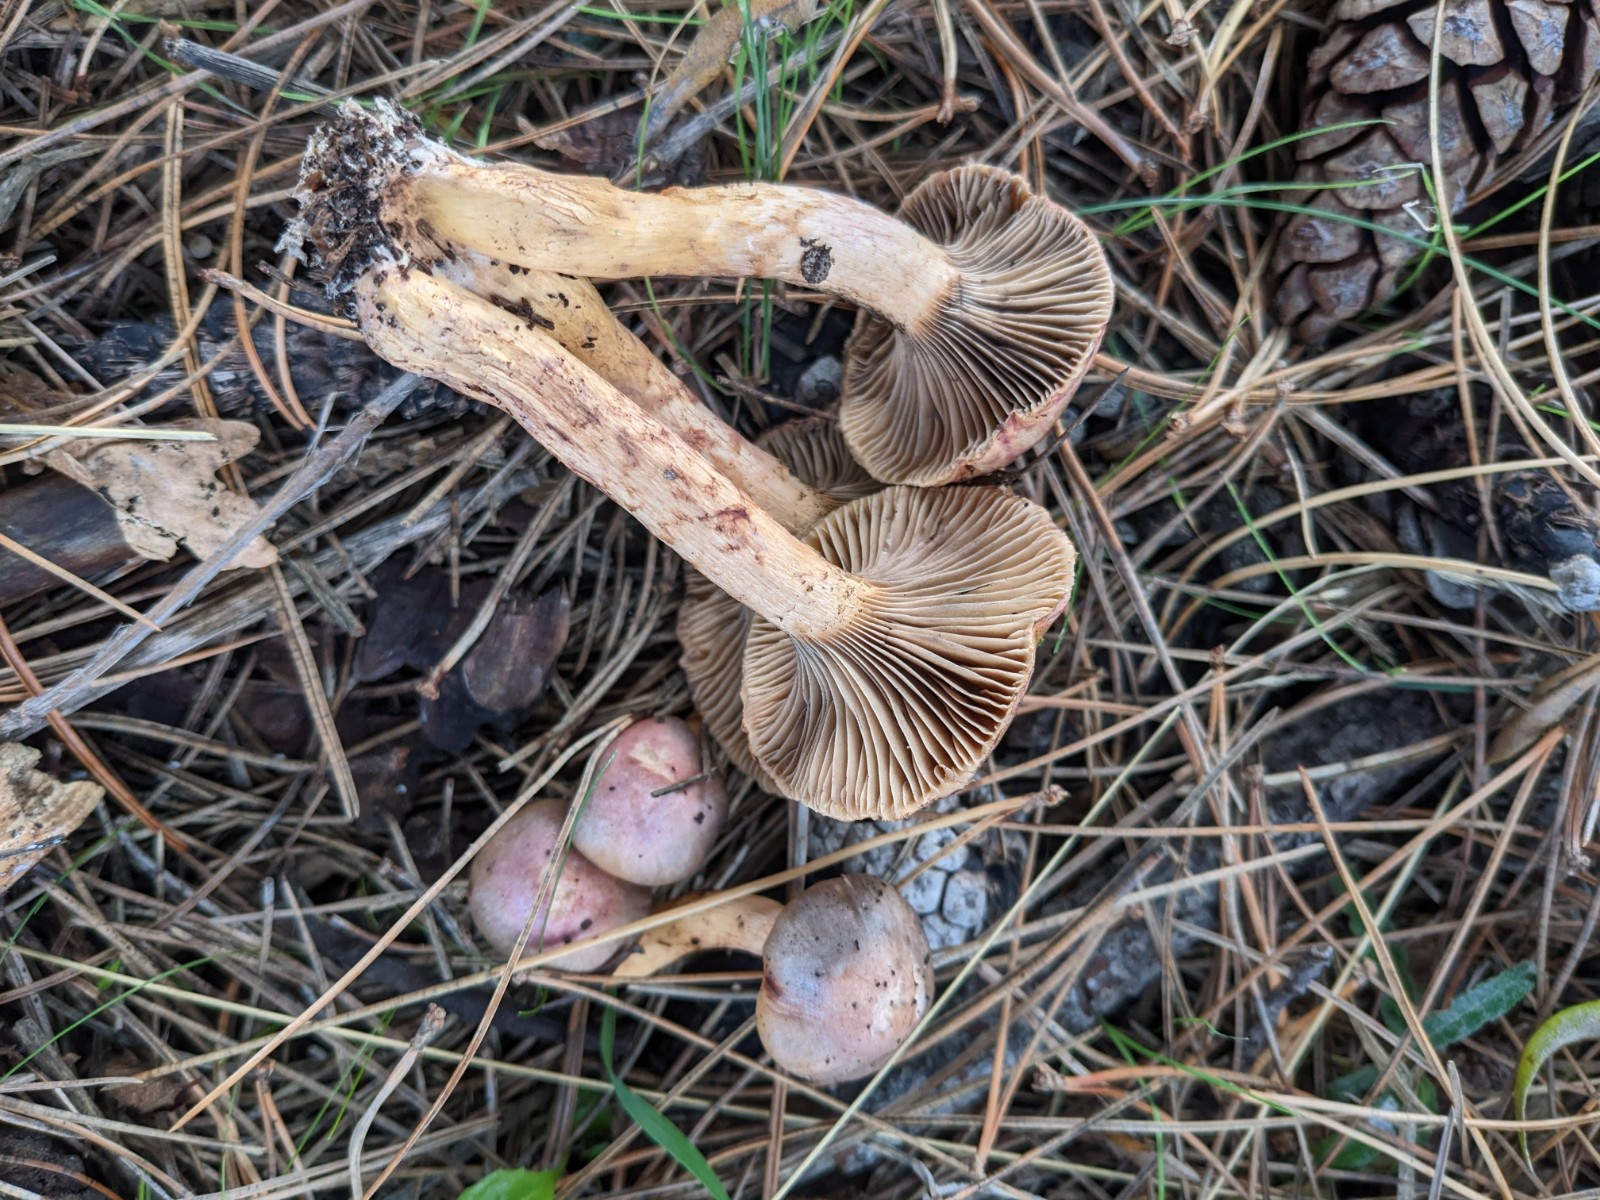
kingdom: Fungi
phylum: Basidiomycota
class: Agaricomycetes
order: Boletales
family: Gomphidiaceae
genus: Chroogomphus
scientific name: Chroogomphus purpurascens
